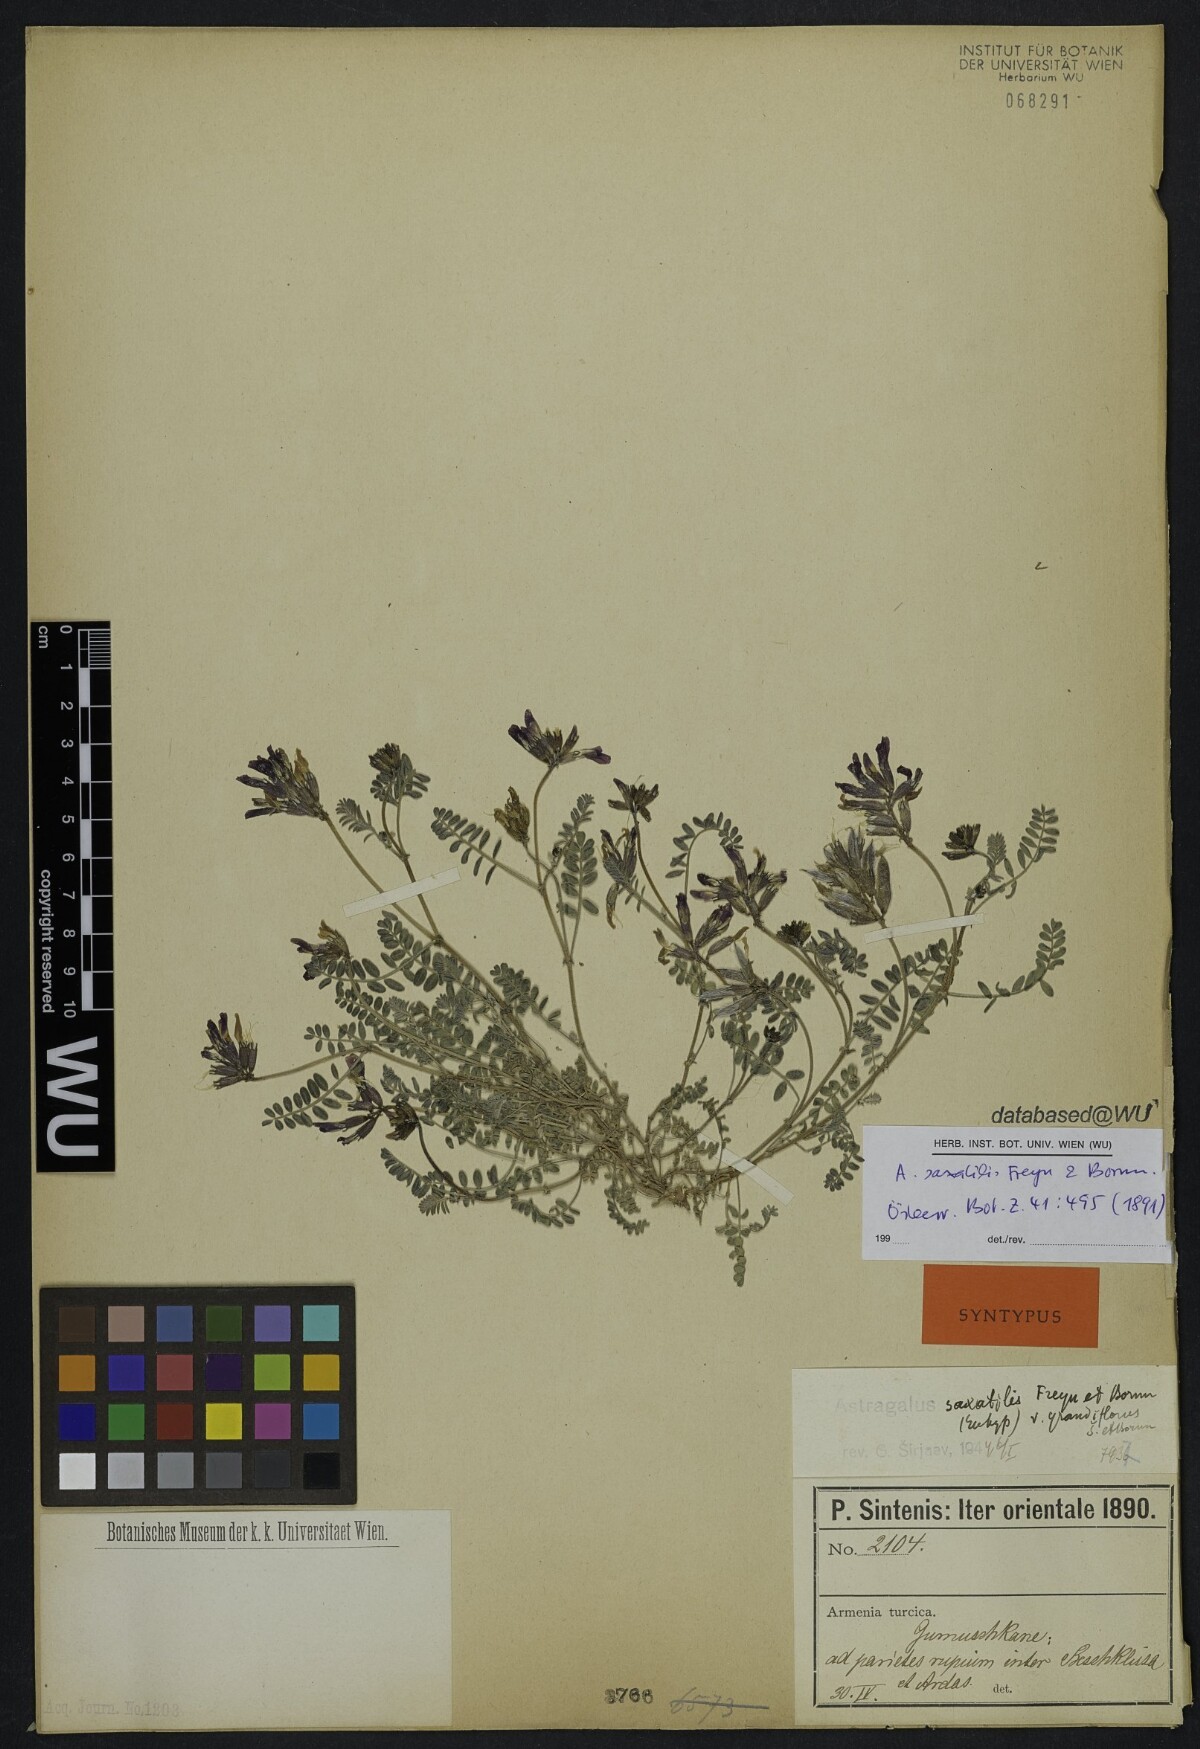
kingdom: Plantae
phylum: Tracheophyta
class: Magnoliopsida
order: Fabales
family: Fabaceae
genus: Astragalus
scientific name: Astragalus humifusus
